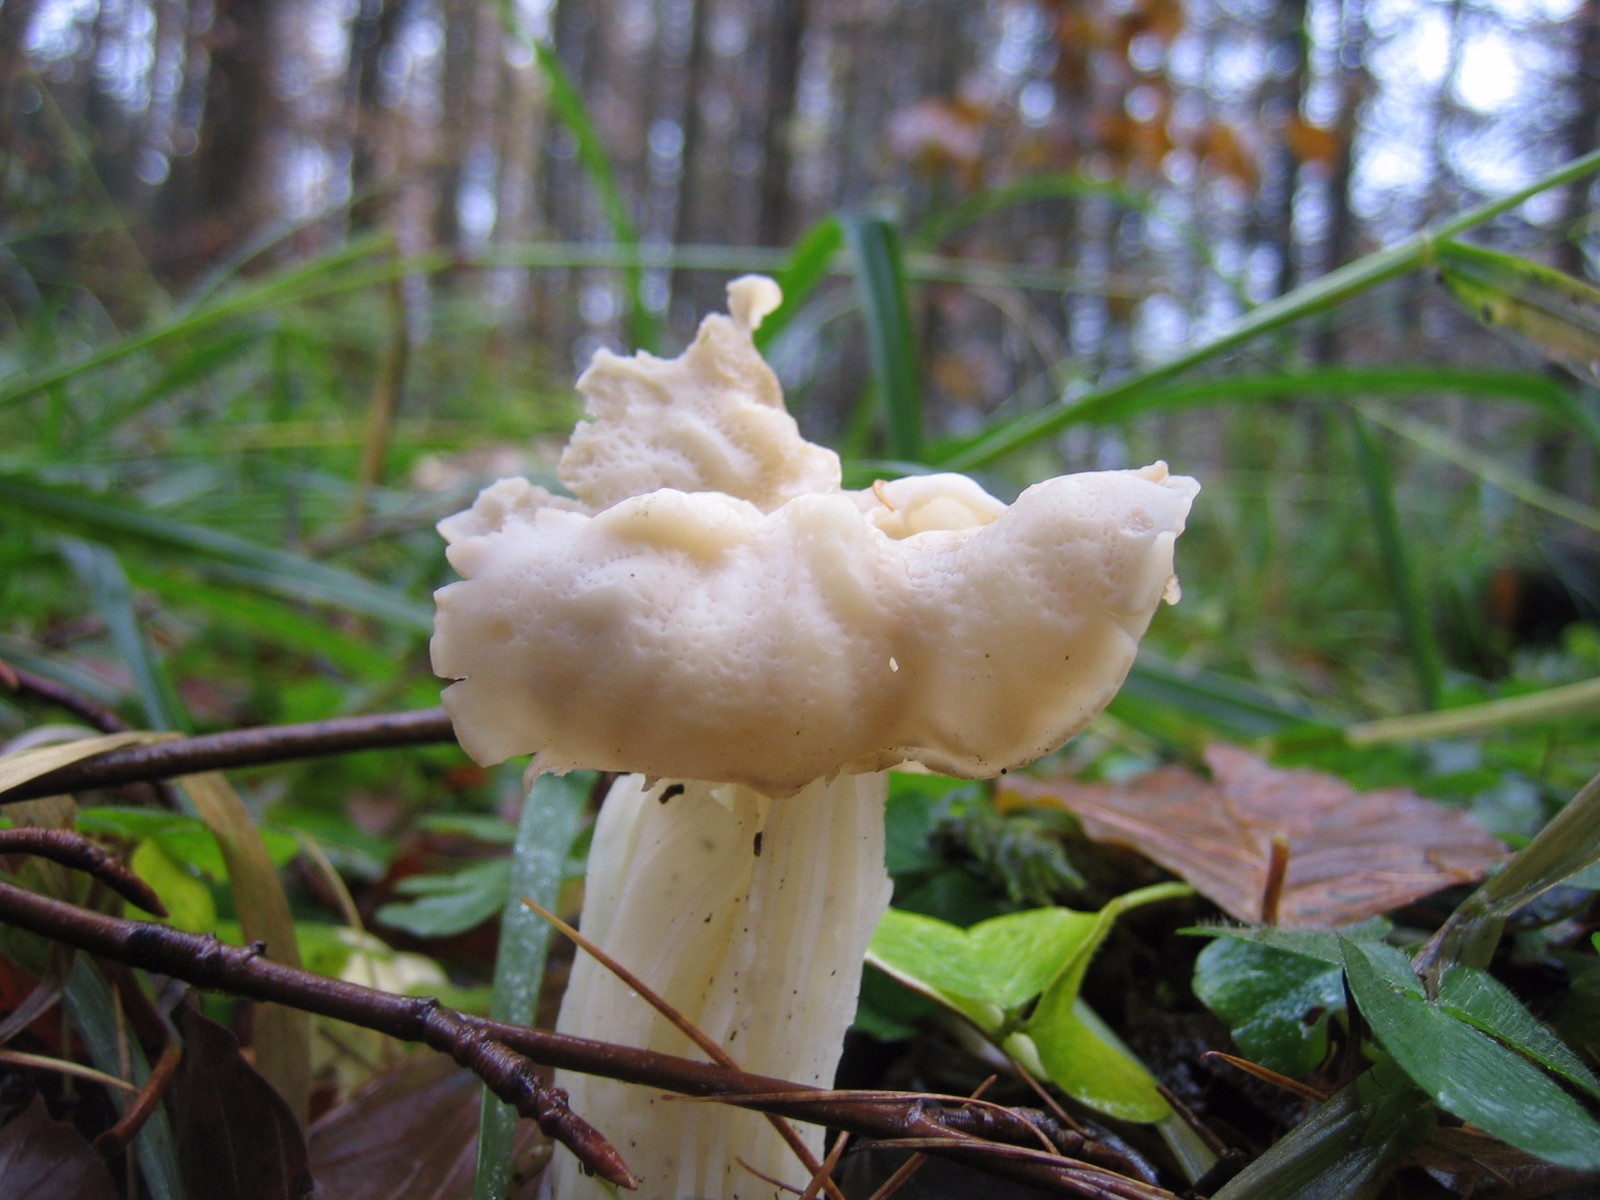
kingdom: Fungi
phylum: Ascomycota
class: Pezizomycetes
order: Pezizales
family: Helvellaceae
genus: Helvella
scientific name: Helvella crispa
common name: kruset foldhat
